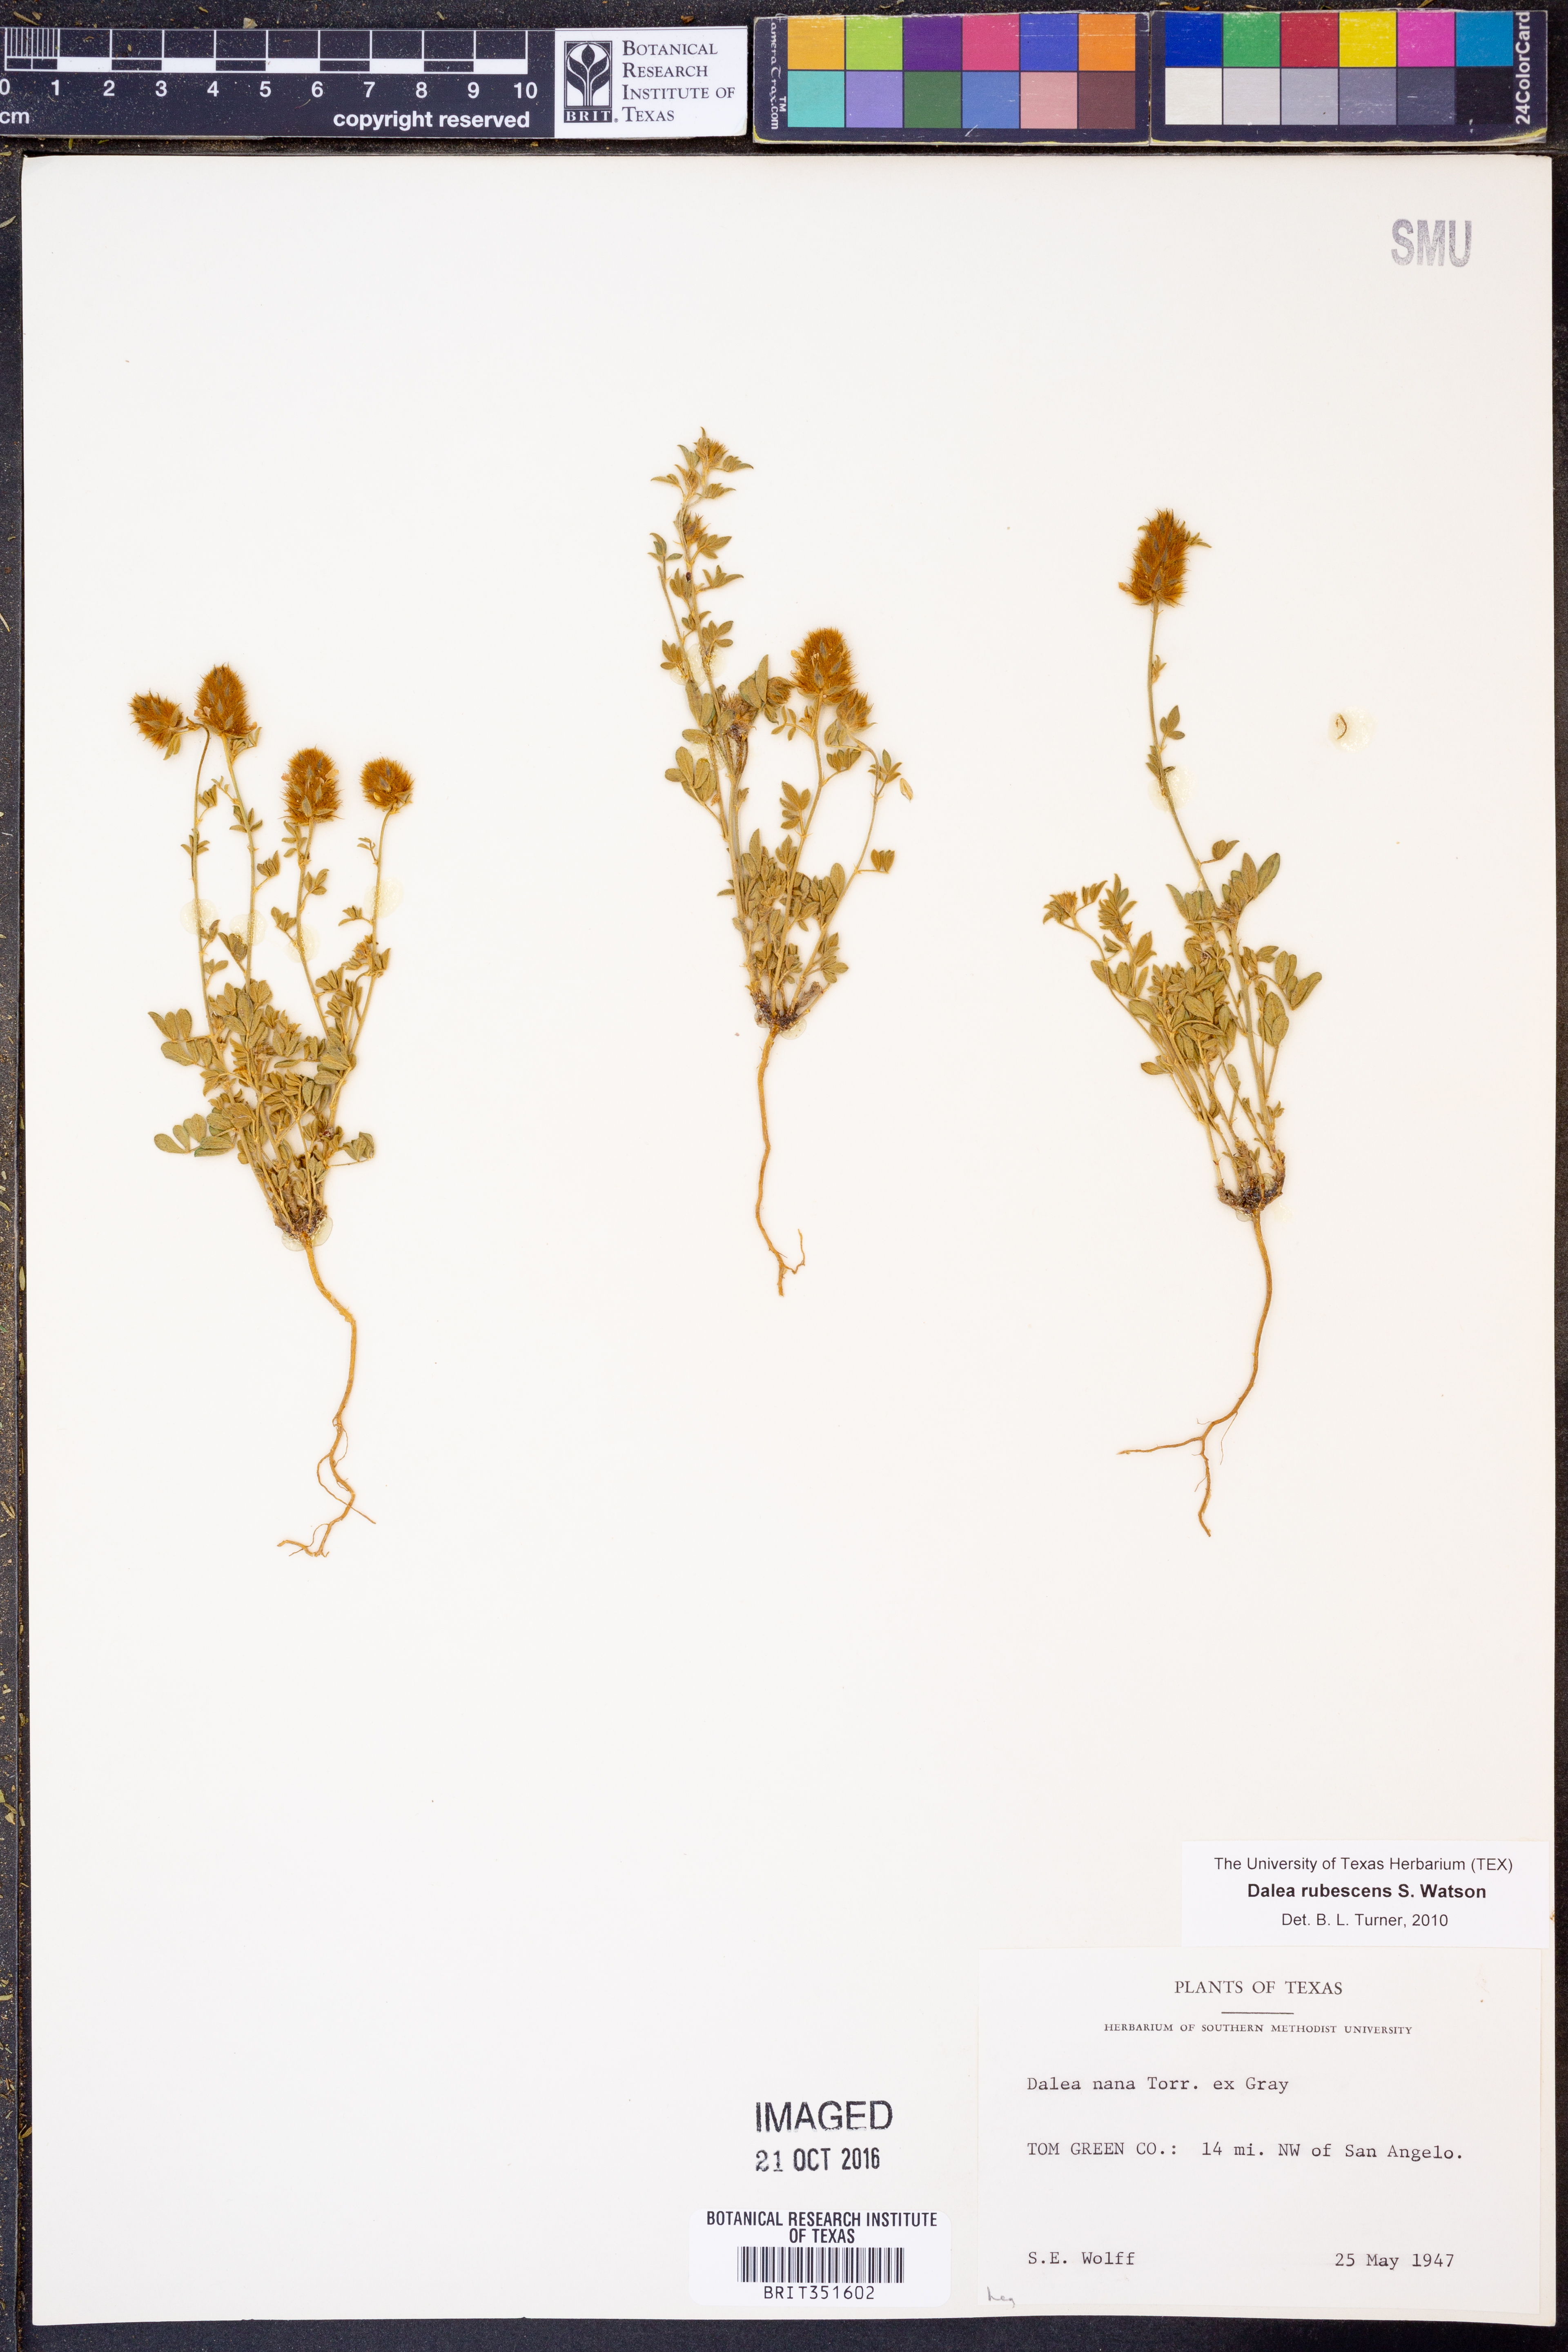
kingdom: Plantae
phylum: Tracheophyta
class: Magnoliopsida
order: Fabales
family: Fabaceae
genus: Dalea
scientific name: Dalea rubescens
